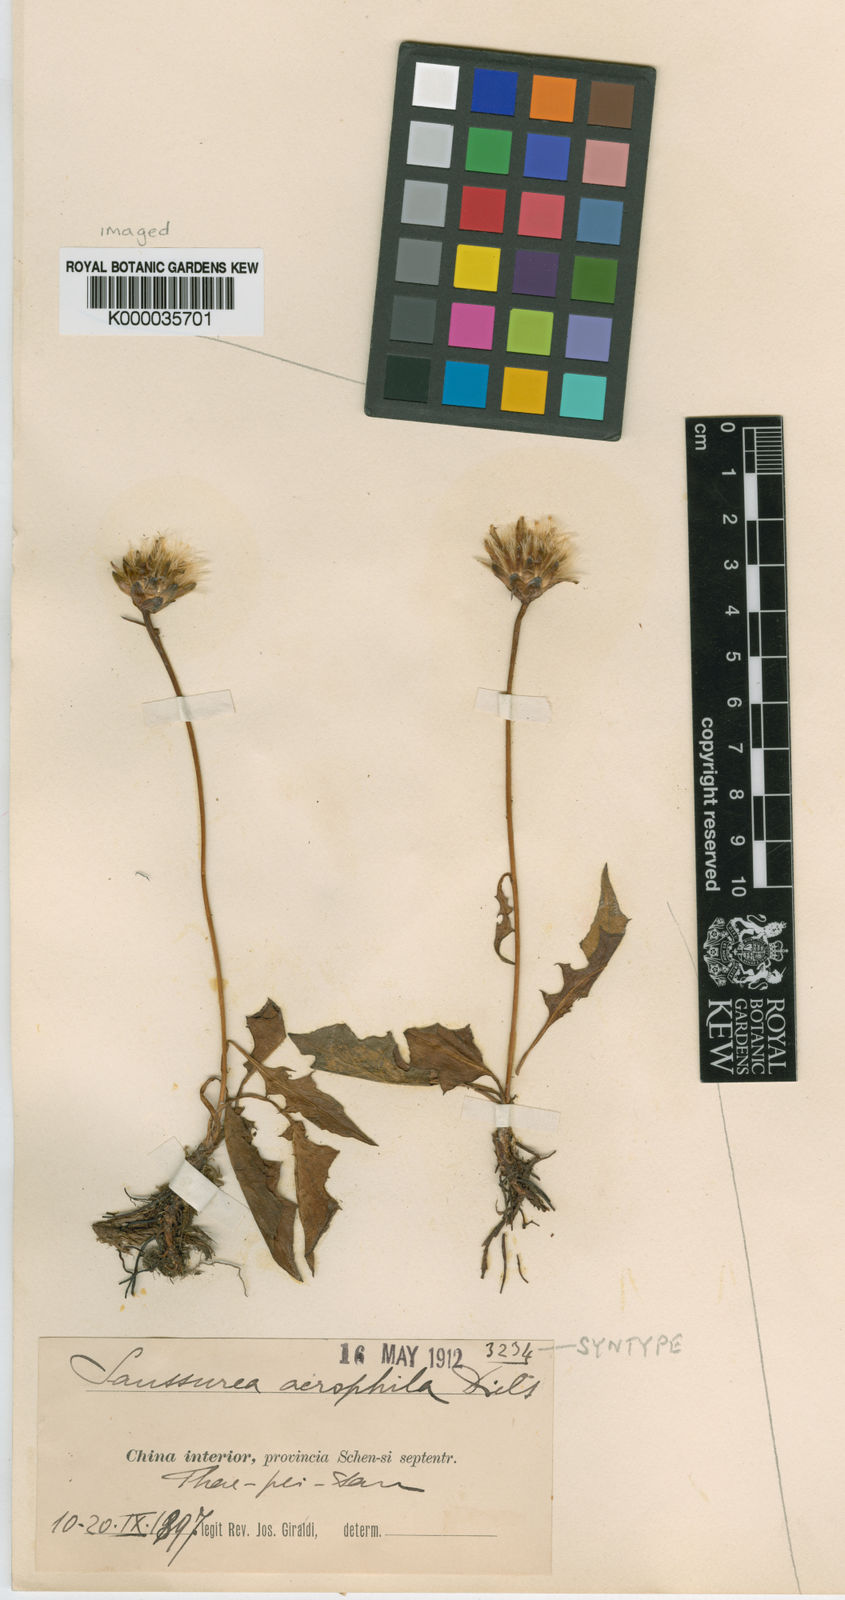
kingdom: Plantae
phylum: Tracheophyta
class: Magnoliopsida
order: Asterales
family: Asteraceae
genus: Saussurea
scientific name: Saussurea acrophila
